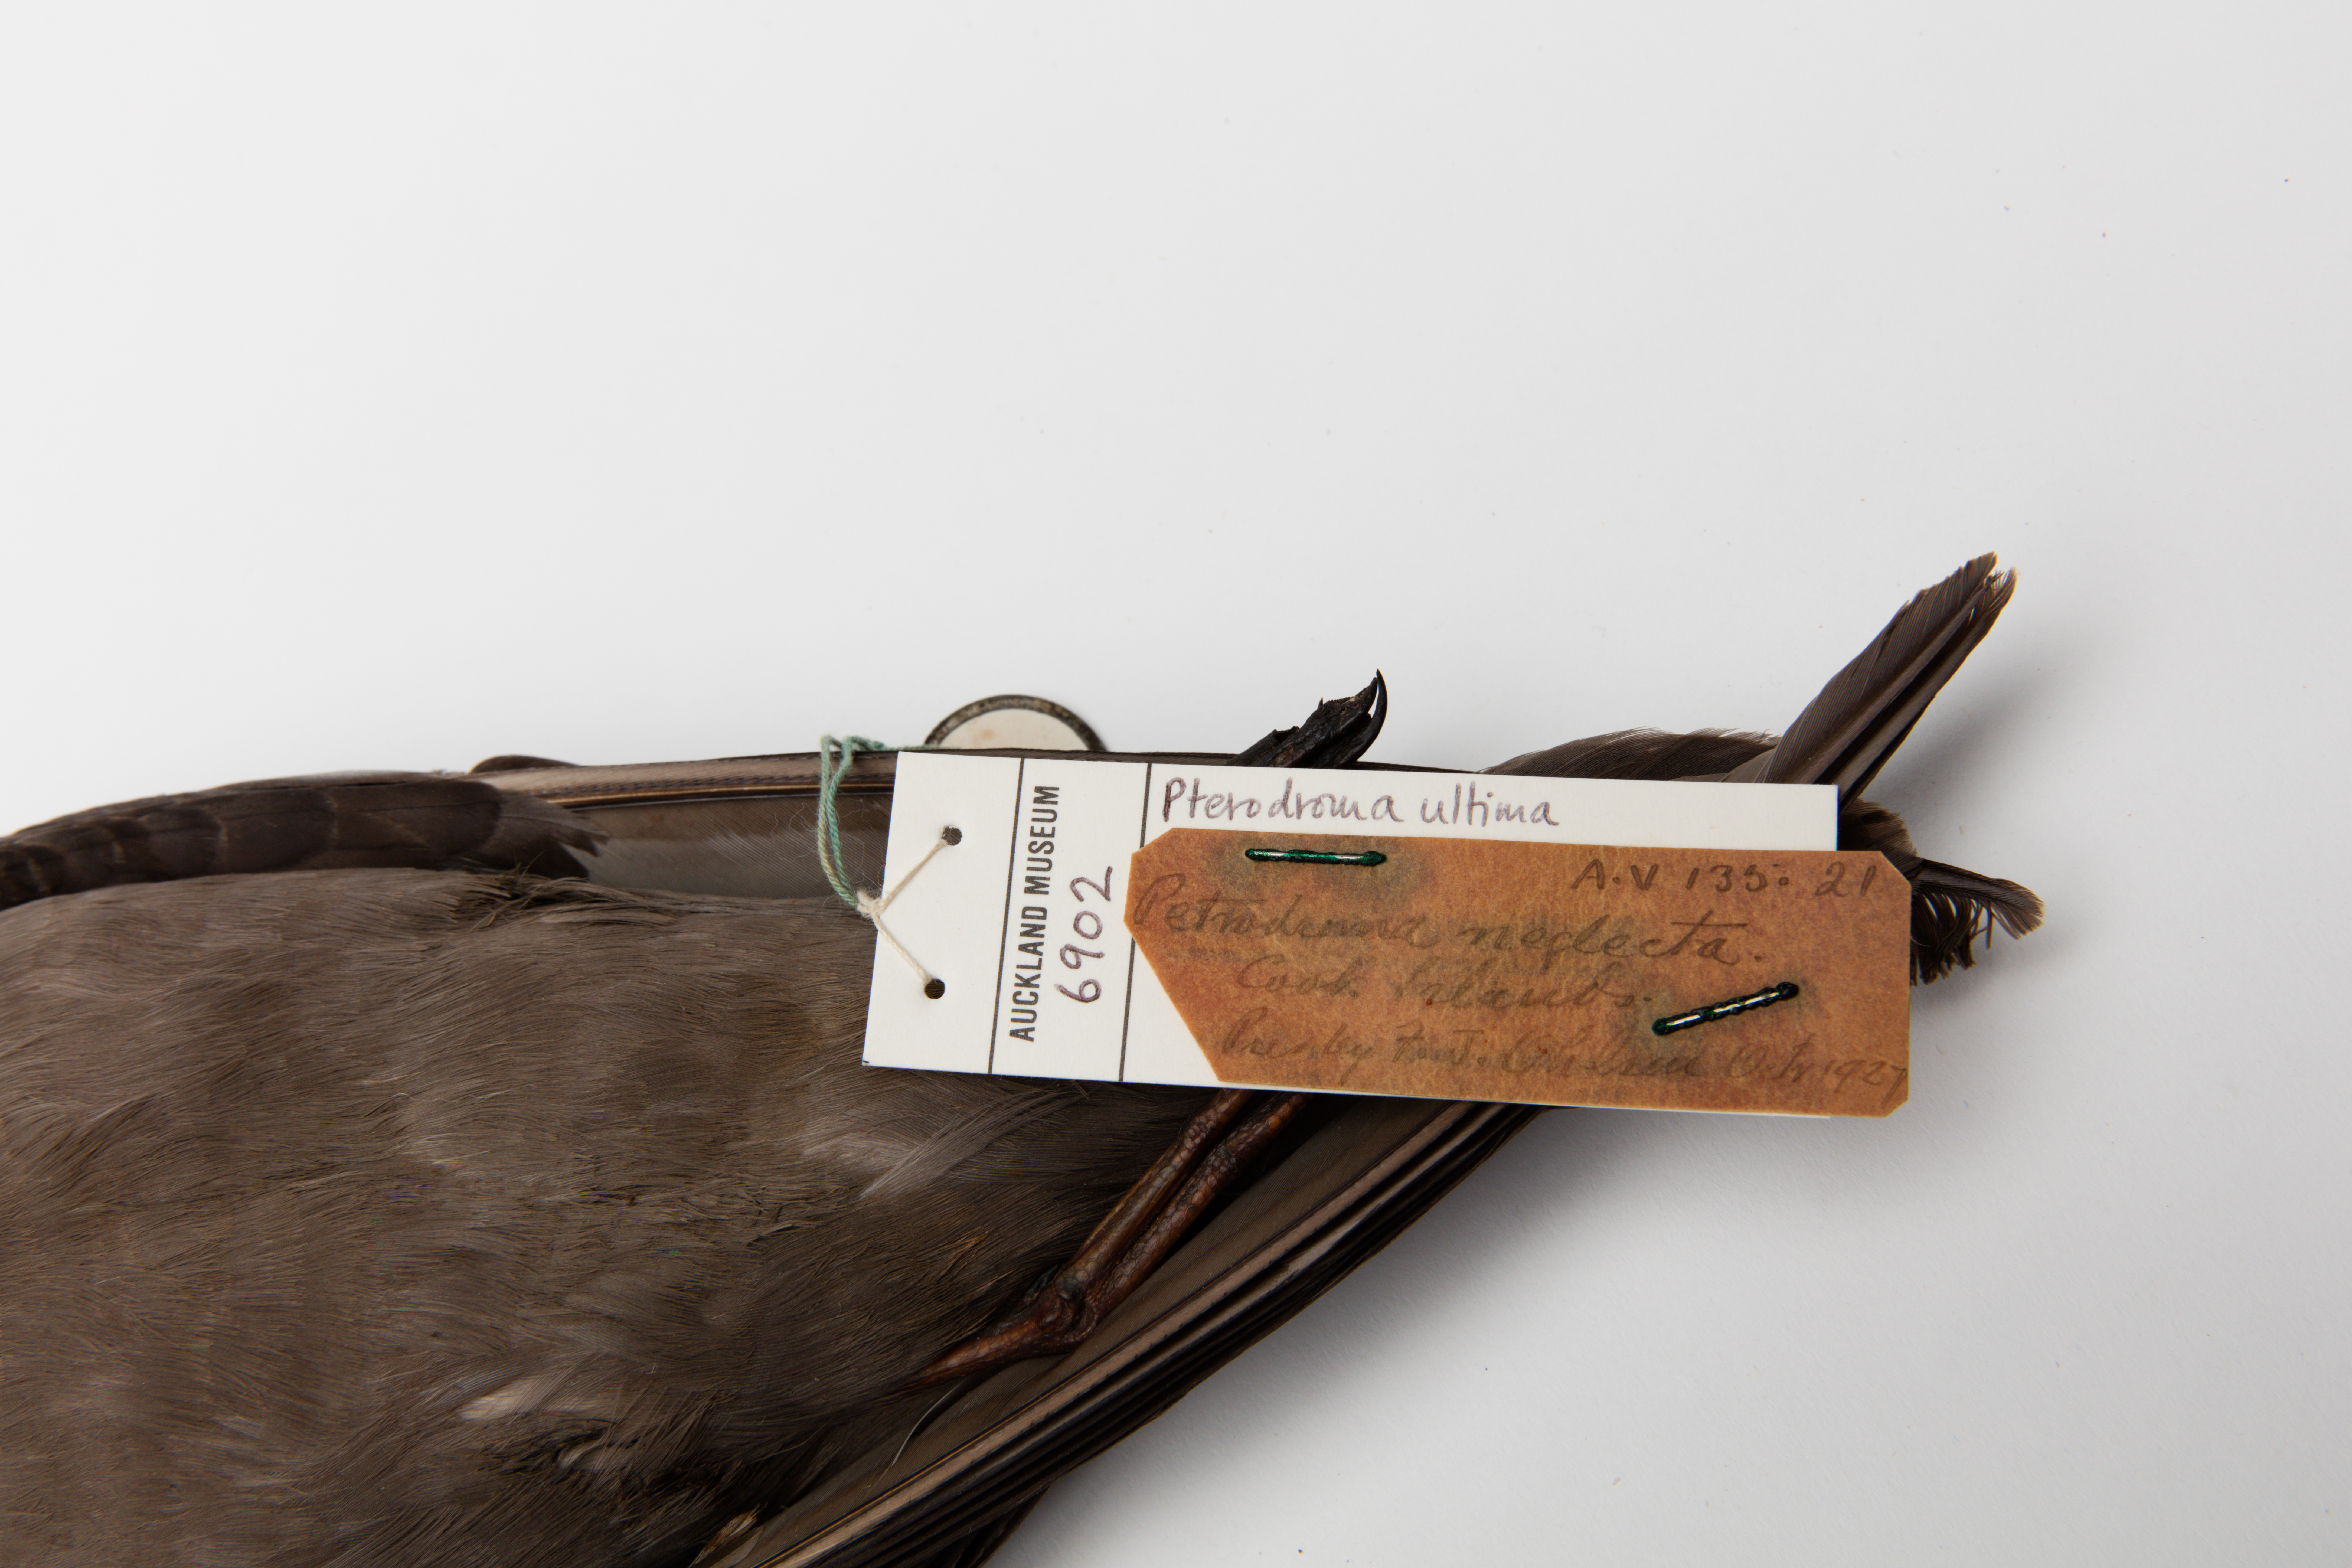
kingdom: Animalia
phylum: Chordata
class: Aves
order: Procellariiformes
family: Procellariidae
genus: Pterodroma
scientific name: Pterodroma ultima
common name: Murphy's petrel
